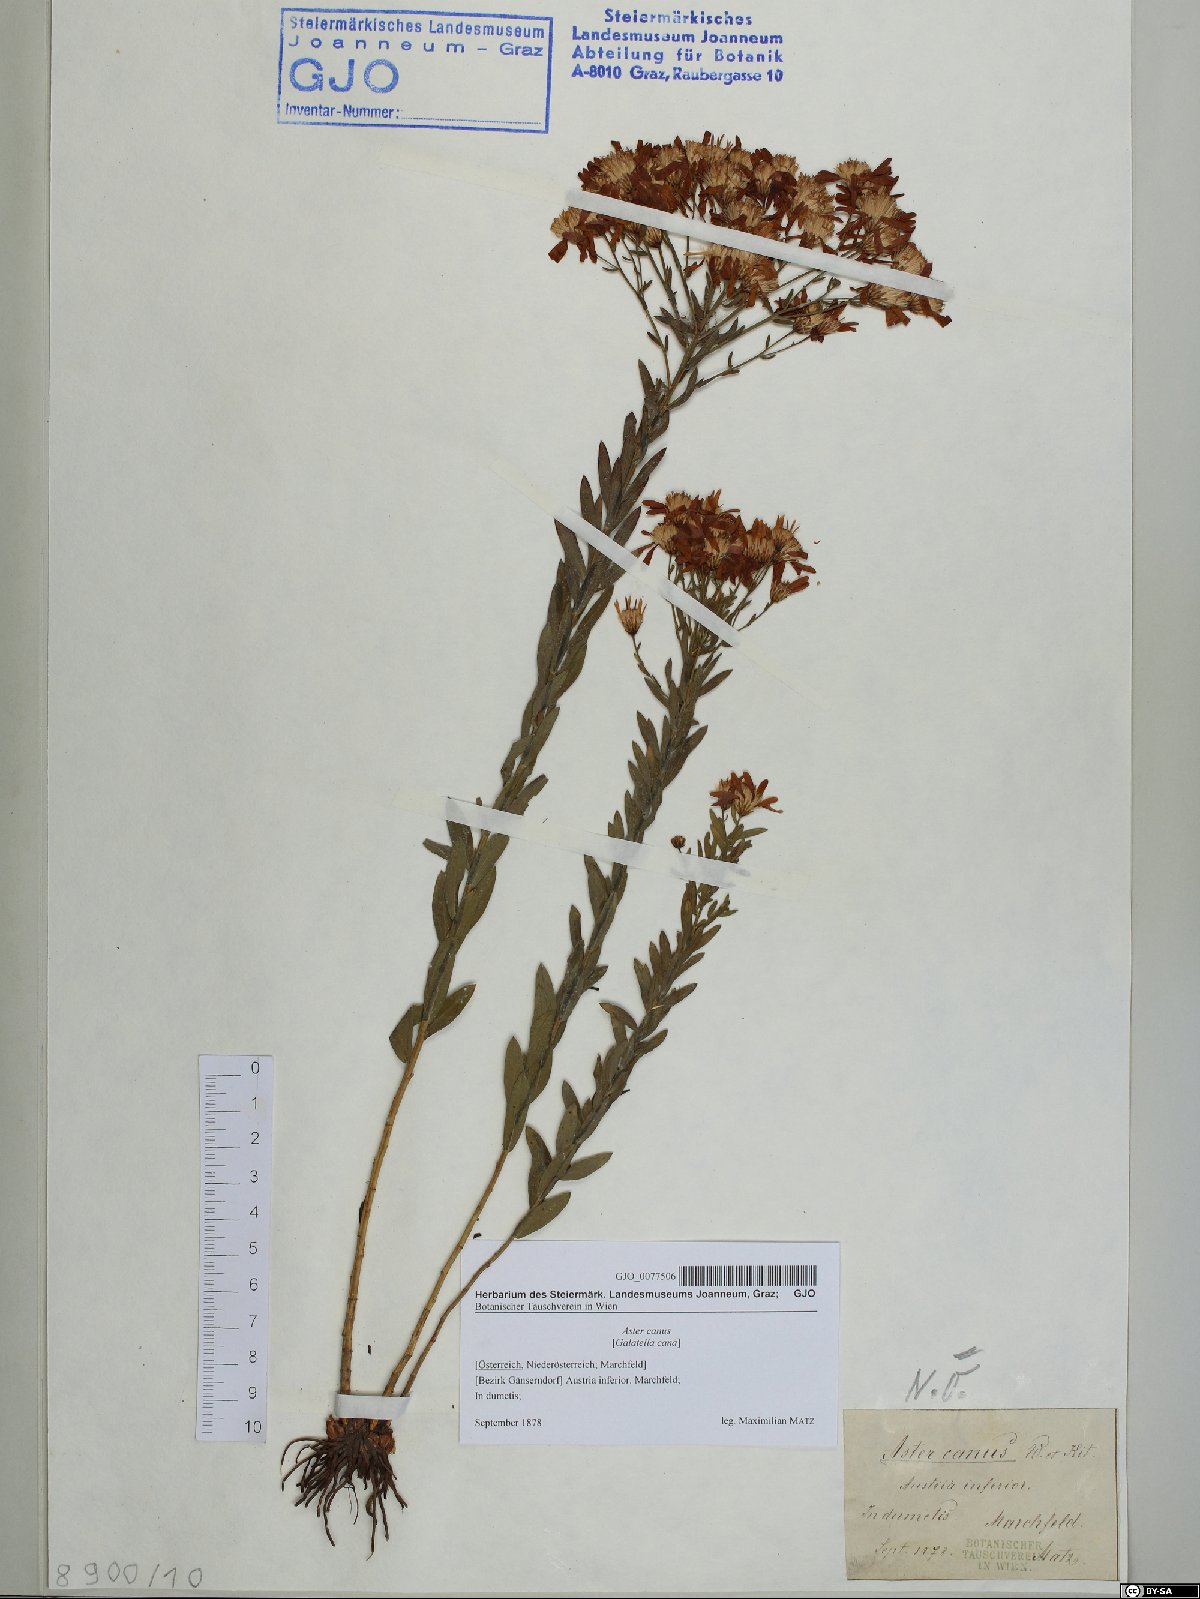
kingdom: Plantae
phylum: Tracheophyta
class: Magnoliopsida
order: Asterales
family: Asteraceae
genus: Galatella
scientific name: Galatella cana
